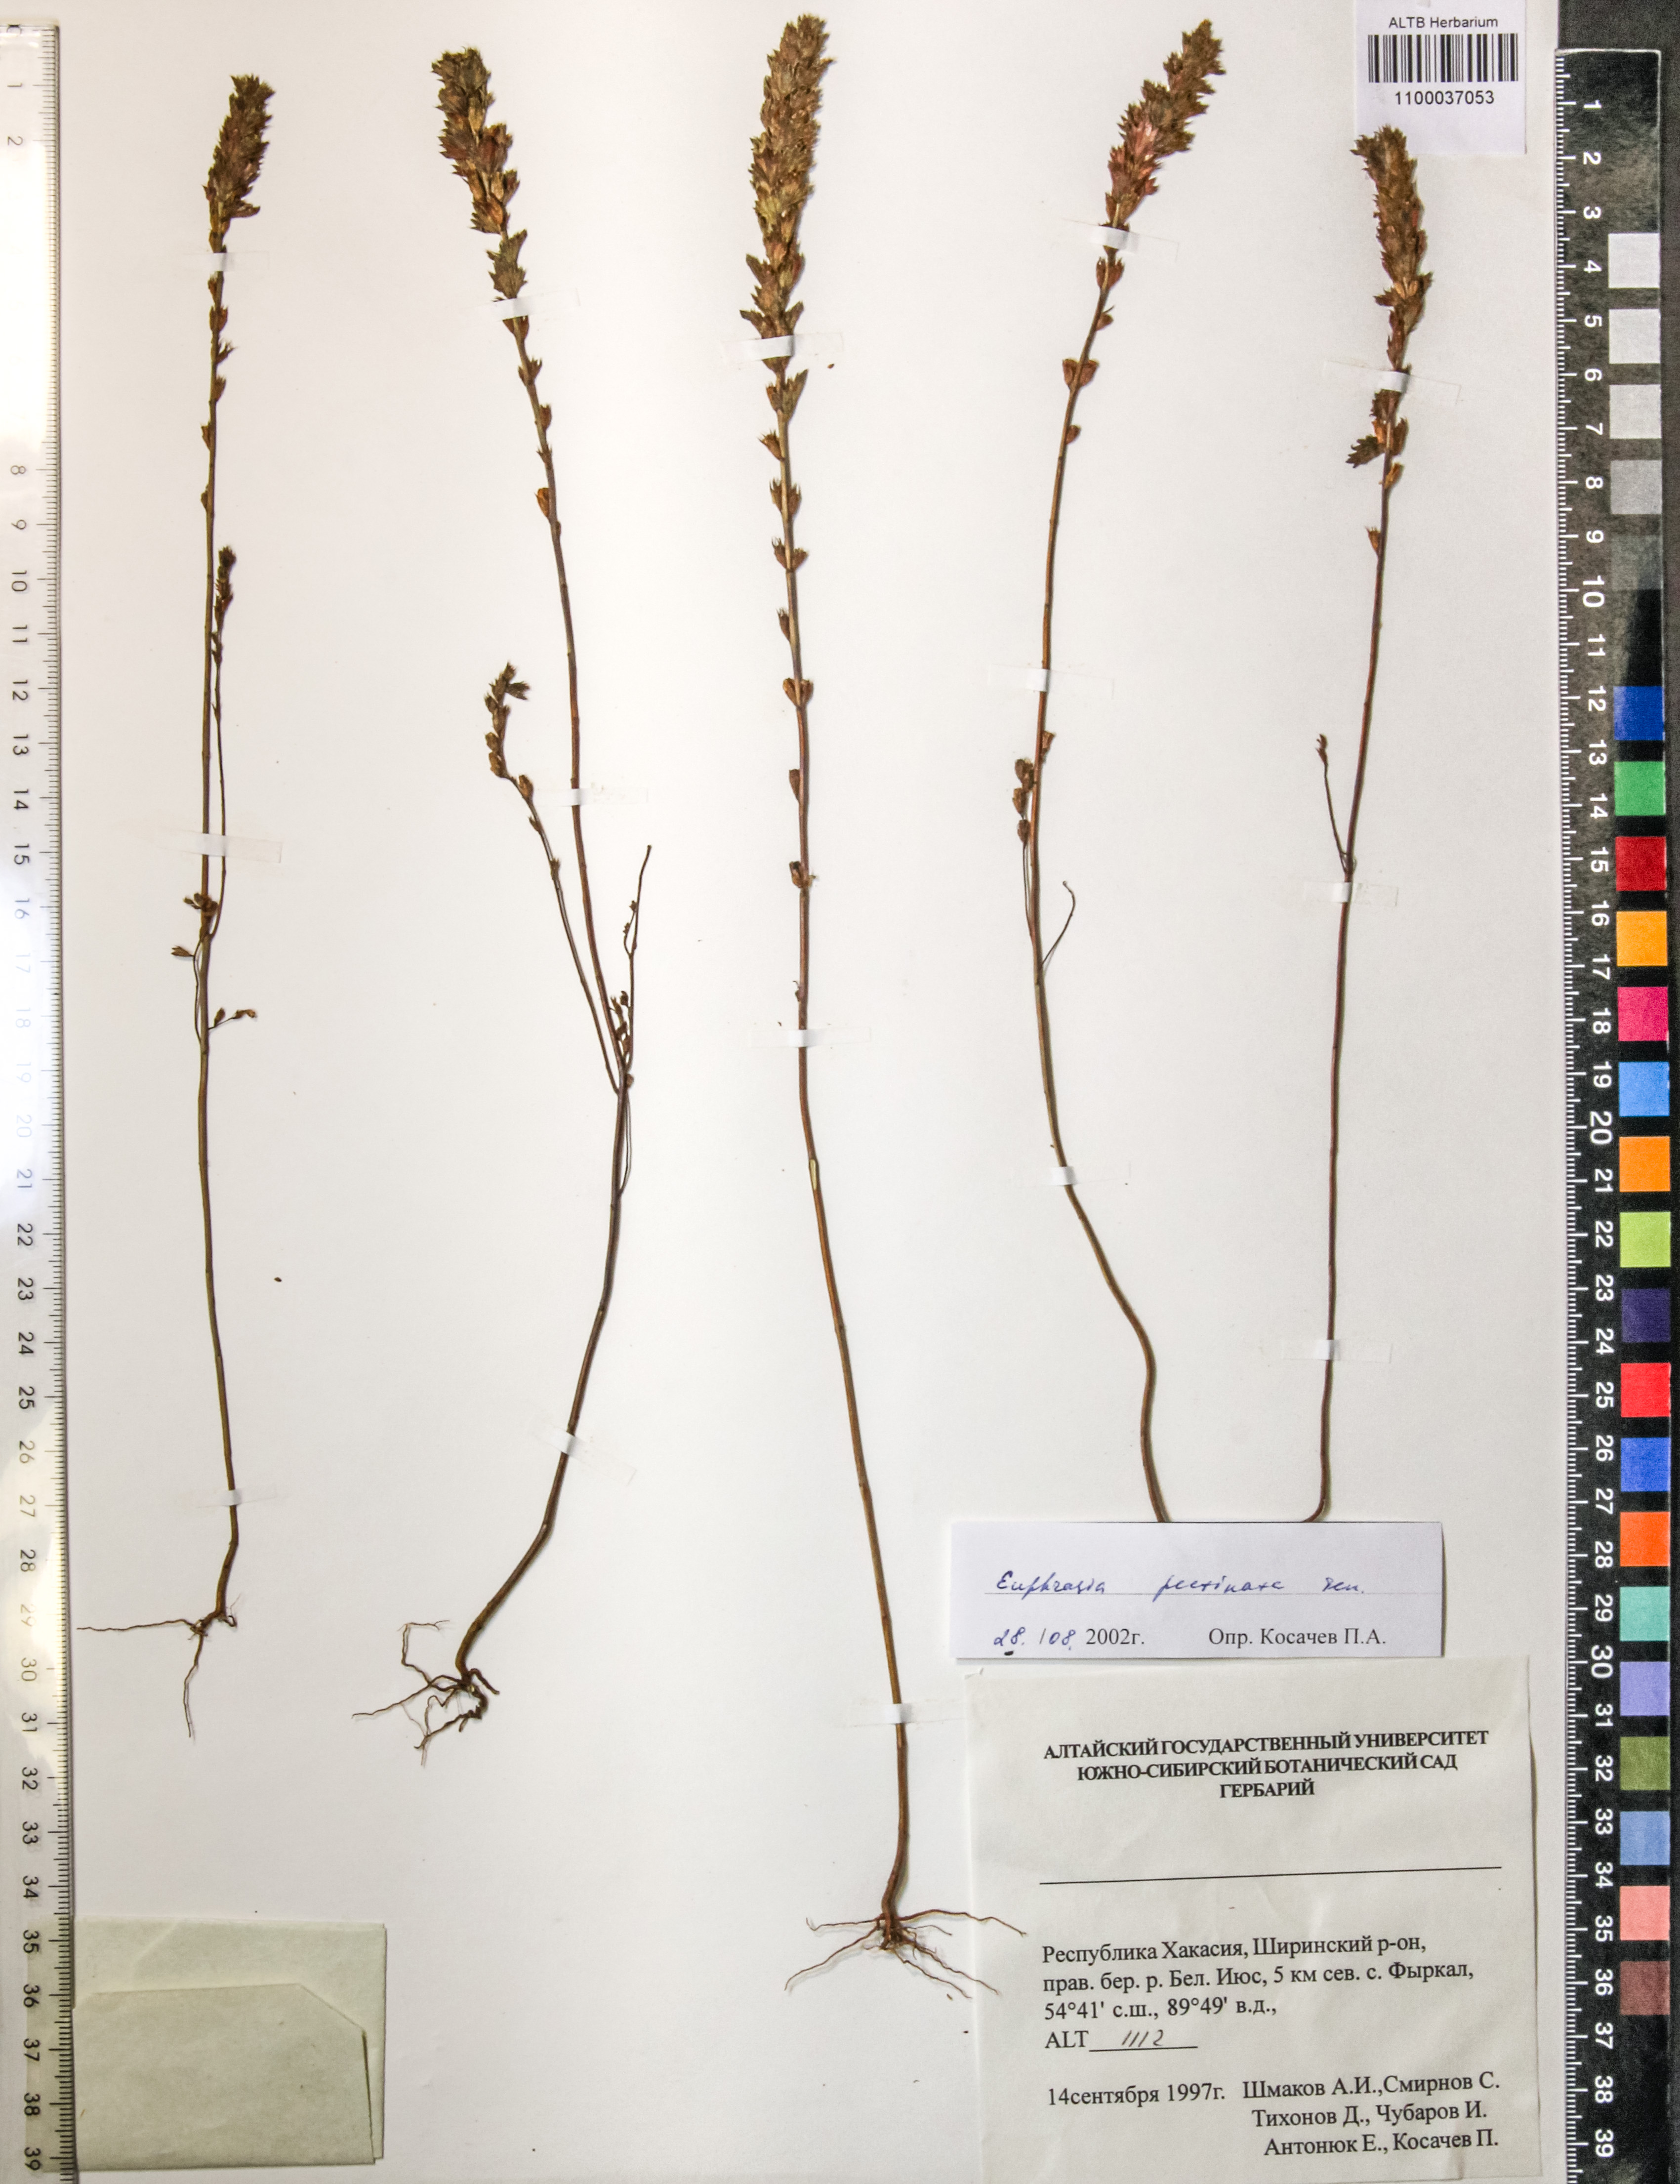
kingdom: Plantae
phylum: Tracheophyta
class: Magnoliopsida
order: Lamiales
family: Orobanchaceae
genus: Euphrasia
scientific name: Euphrasia pectinata
